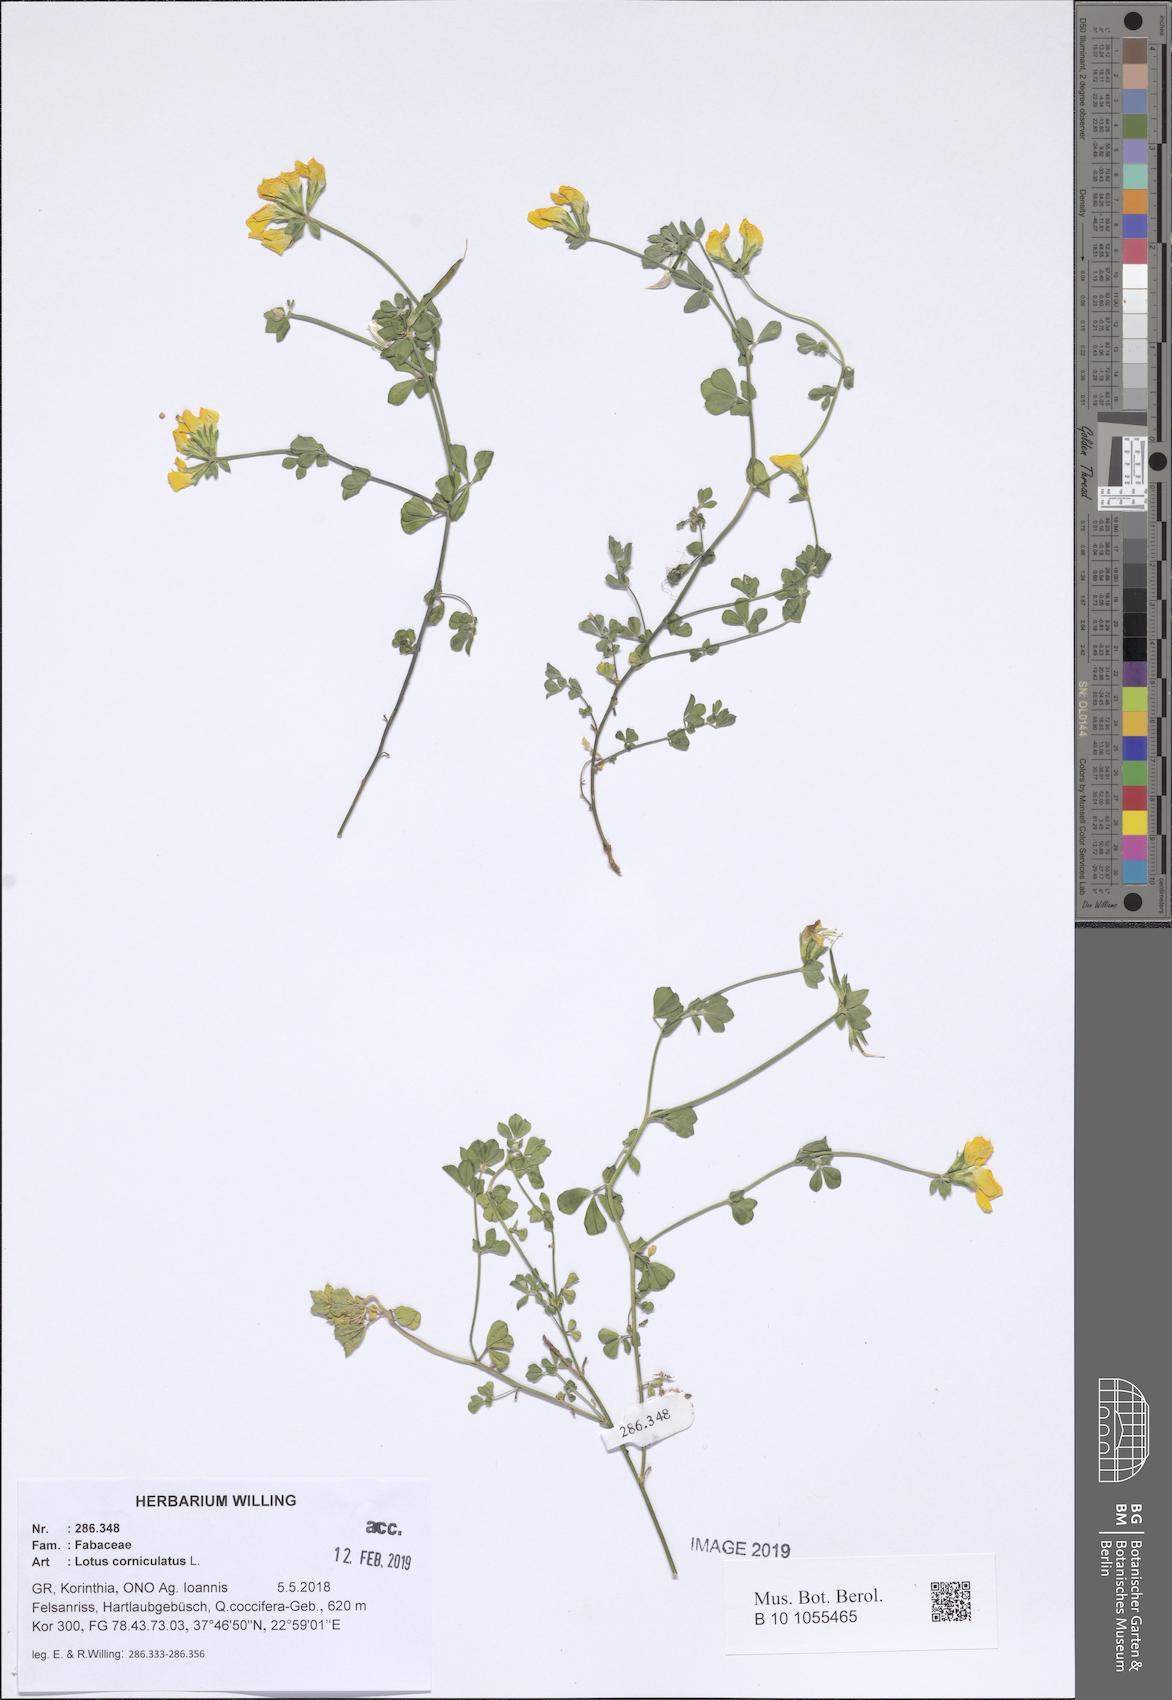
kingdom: Plantae
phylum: Tracheophyta
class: Magnoliopsida
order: Fabales
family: Fabaceae
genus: Lotus
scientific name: Lotus corniculatus
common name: Common bird's-foot-trefoil
